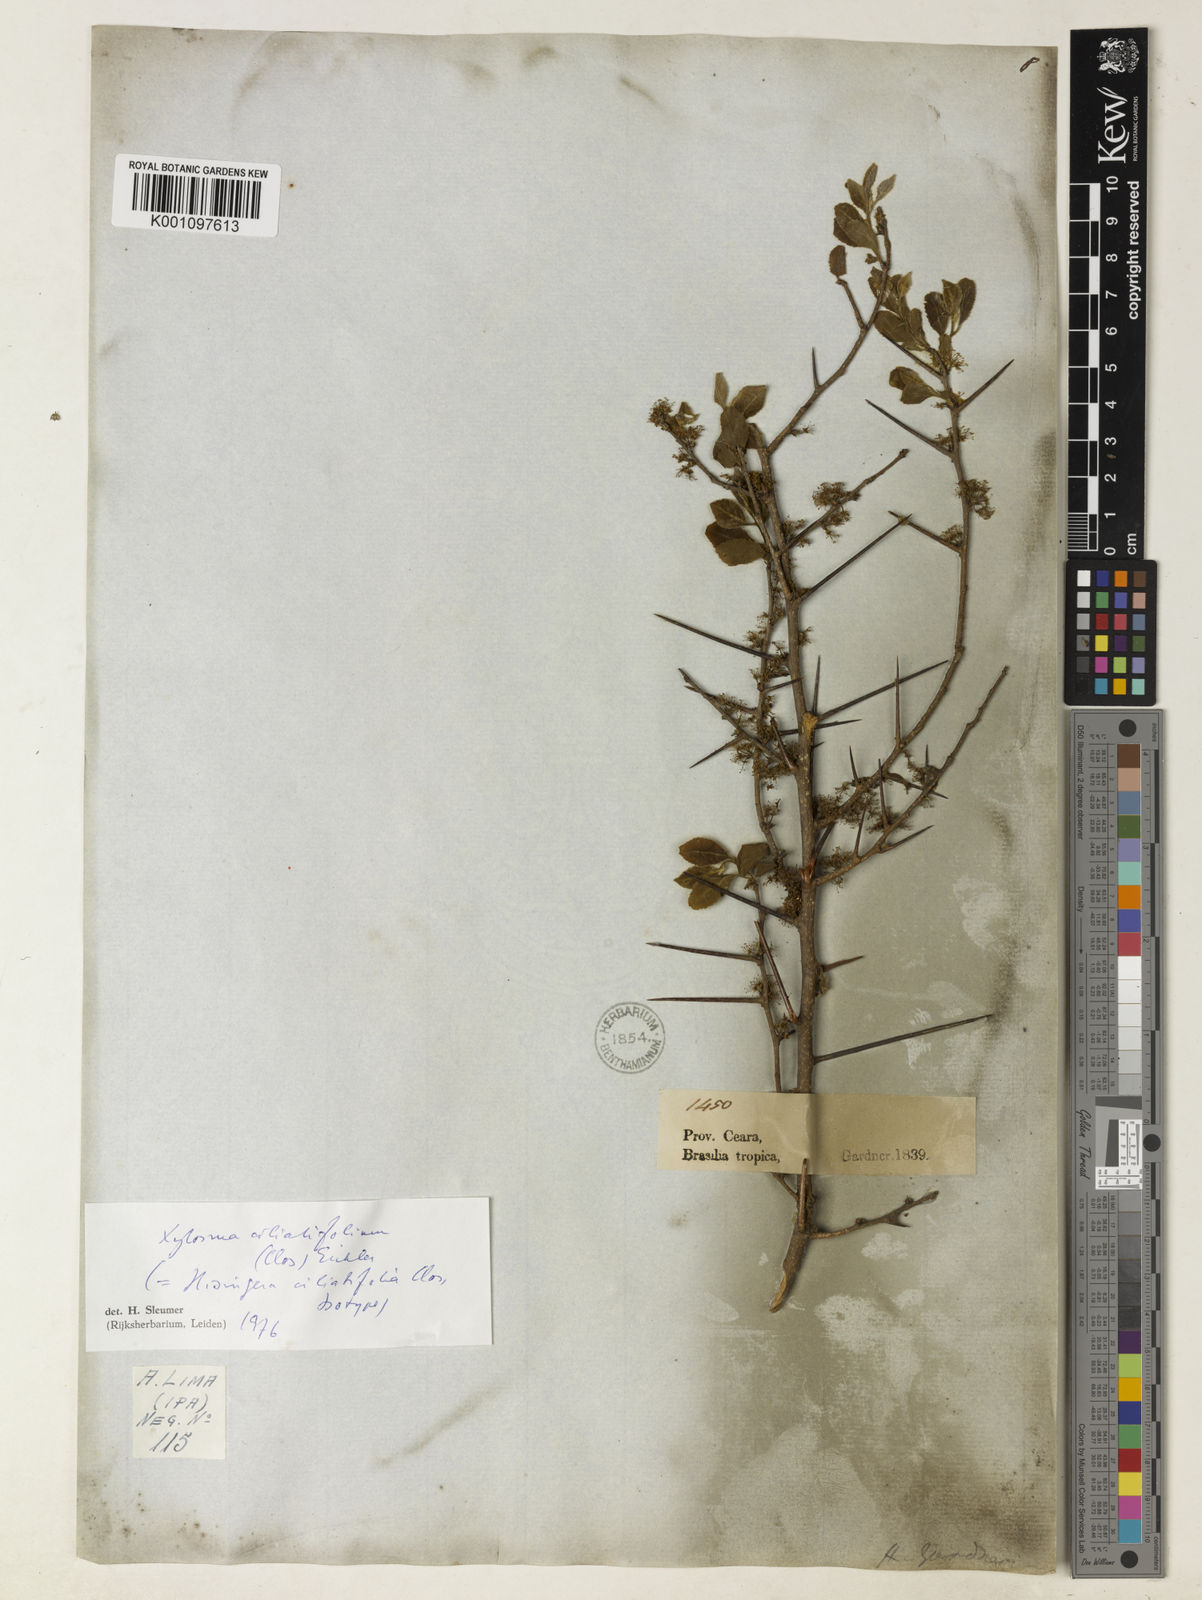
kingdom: Plantae
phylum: Tracheophyta
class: Magnoliopsida
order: Malpighiales
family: Salicaceae
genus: Xylosma
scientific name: Xylosma ciliatifolia
